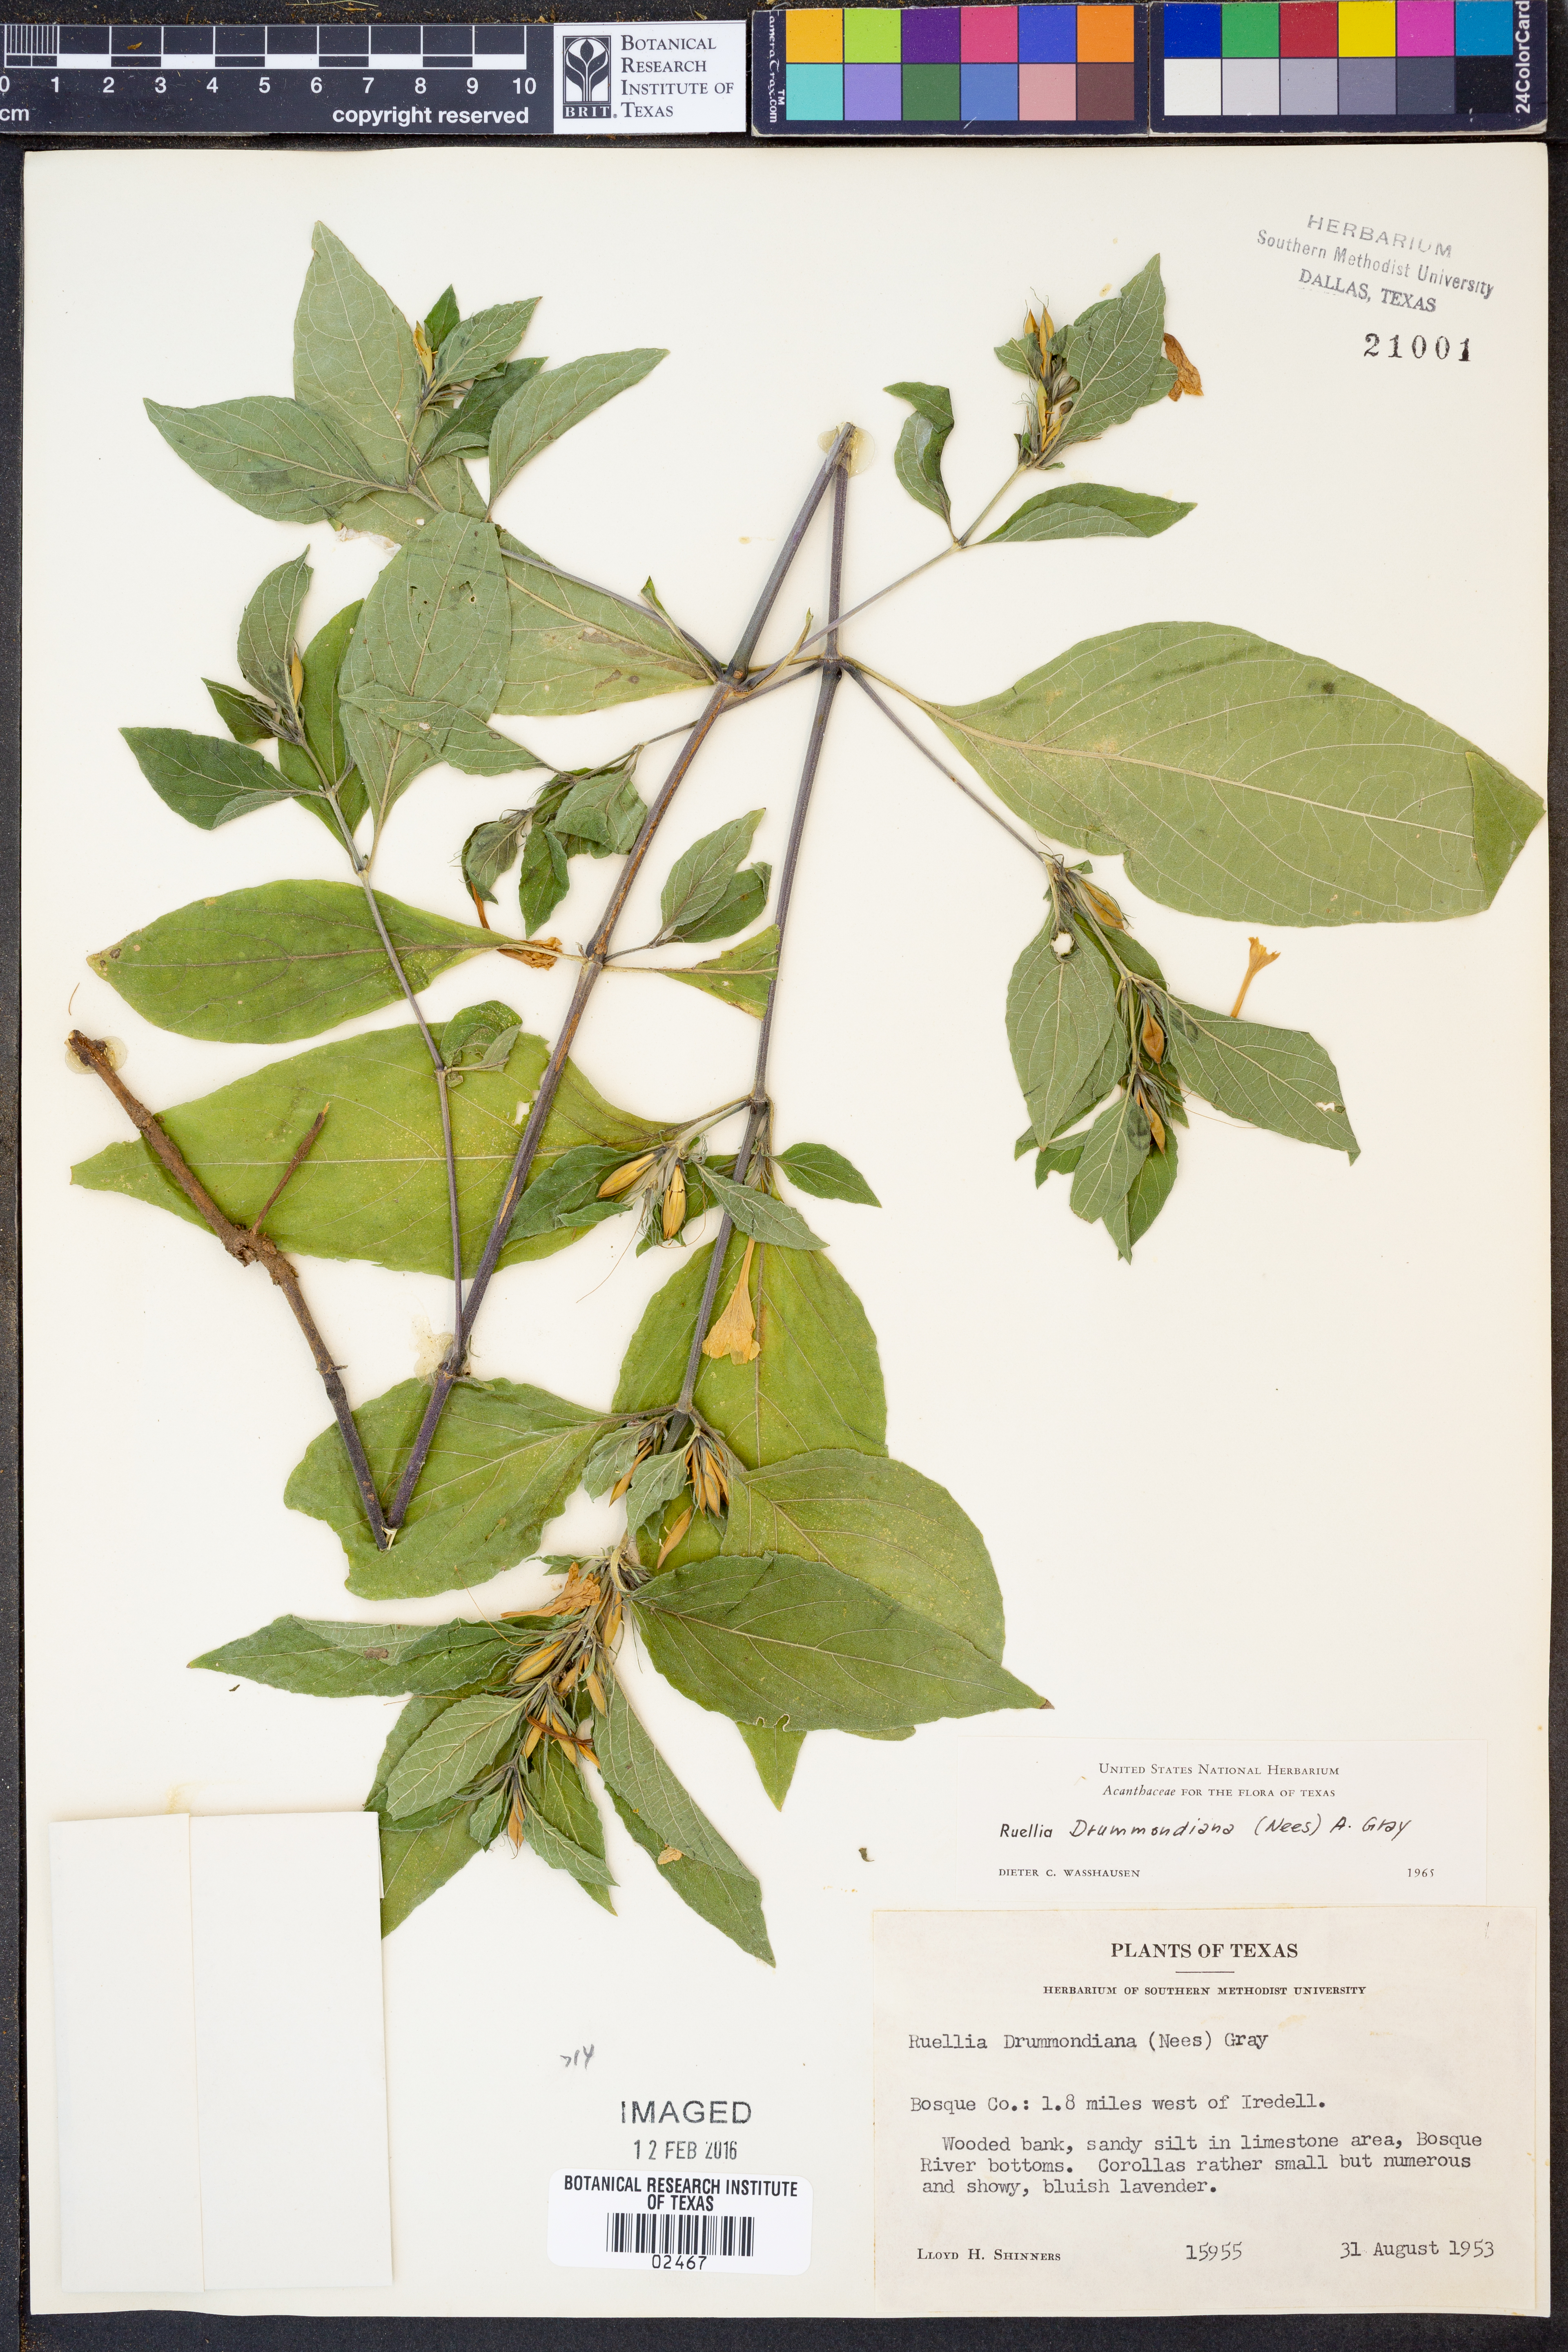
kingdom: Plantae
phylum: Tracheophyta
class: Magnoliopsida
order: Lamiales
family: Acanthaceae
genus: Ruellia
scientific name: Ruellia drummondiana
